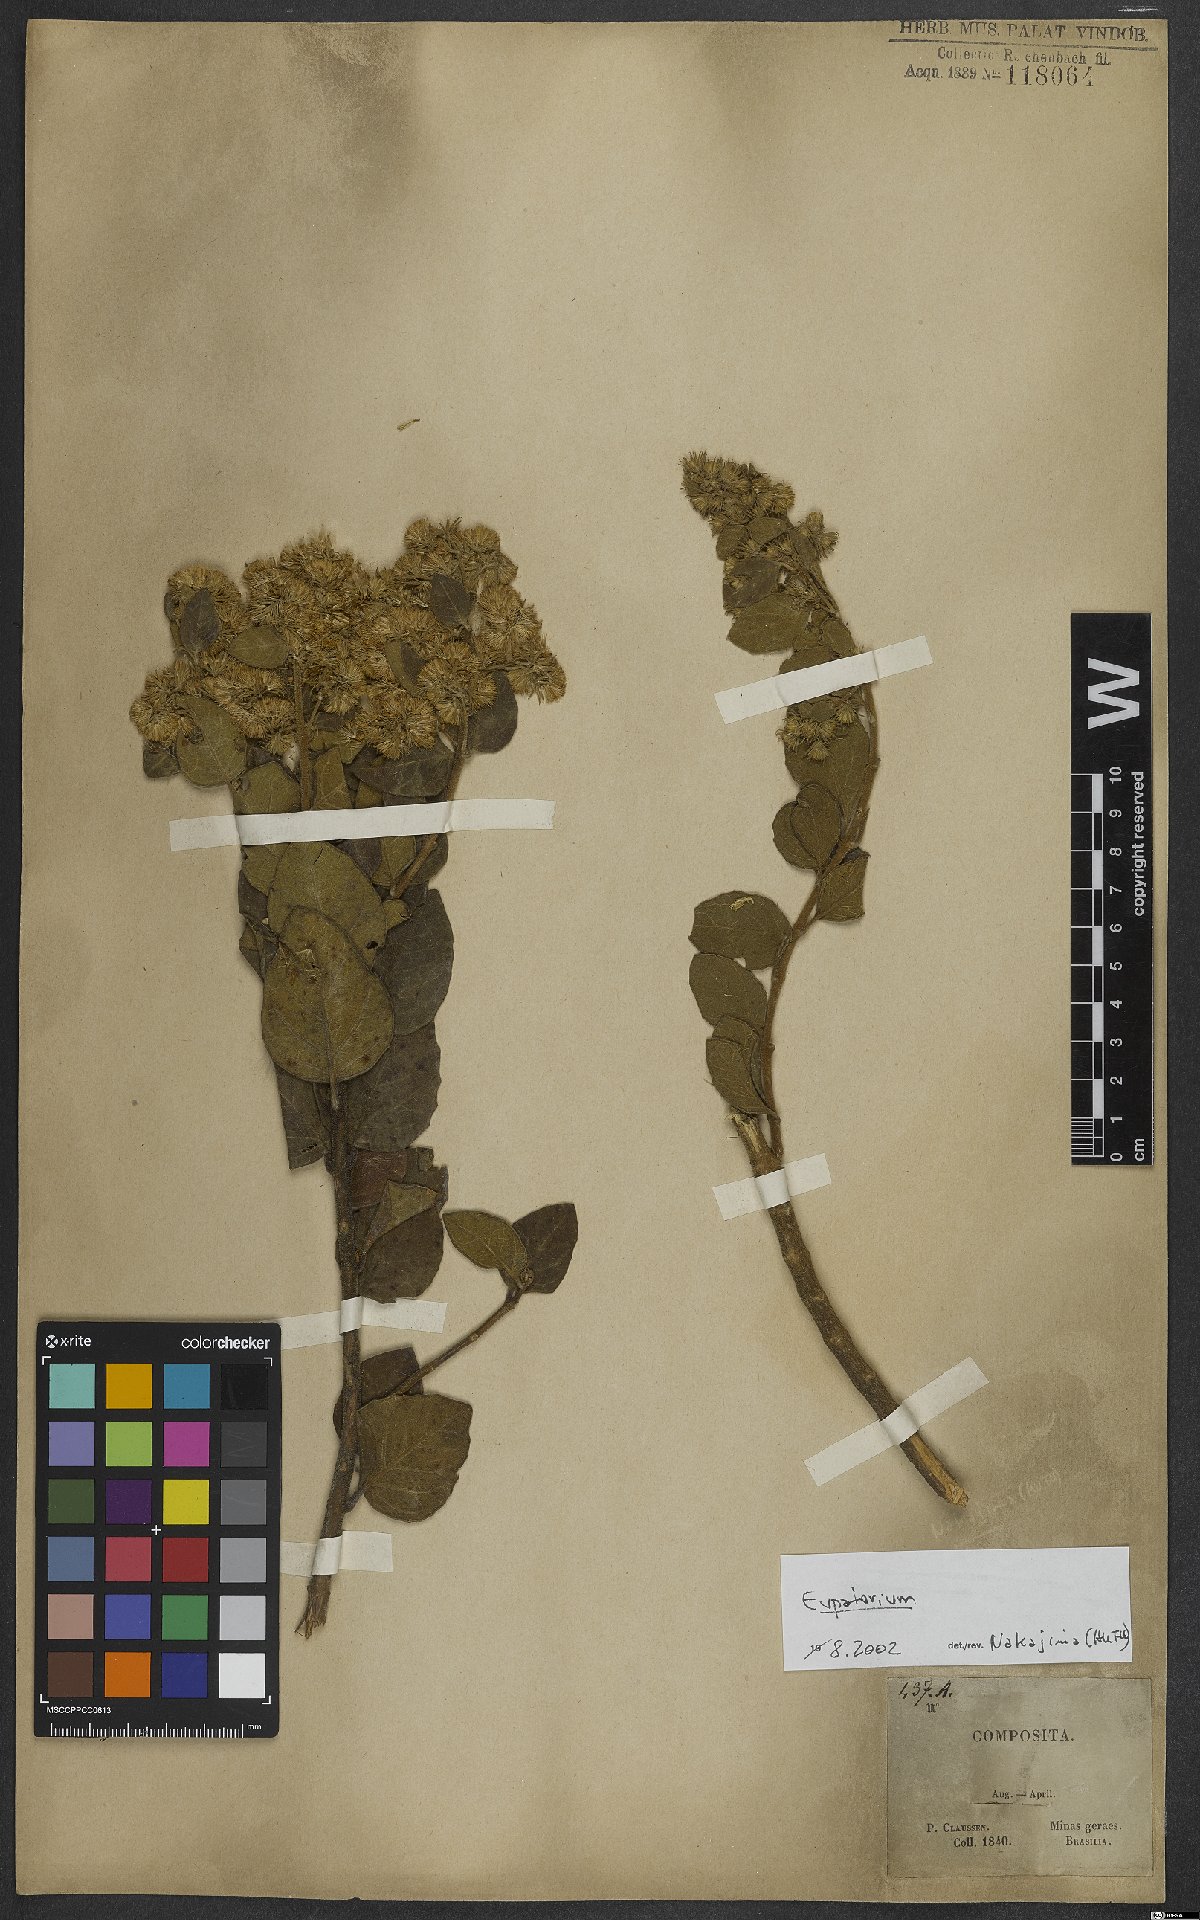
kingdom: Plantae
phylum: Tracheophyta
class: Magnoliopsida
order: Asterales
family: Asteraceae
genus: Eupatorium
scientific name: Eupatorium
